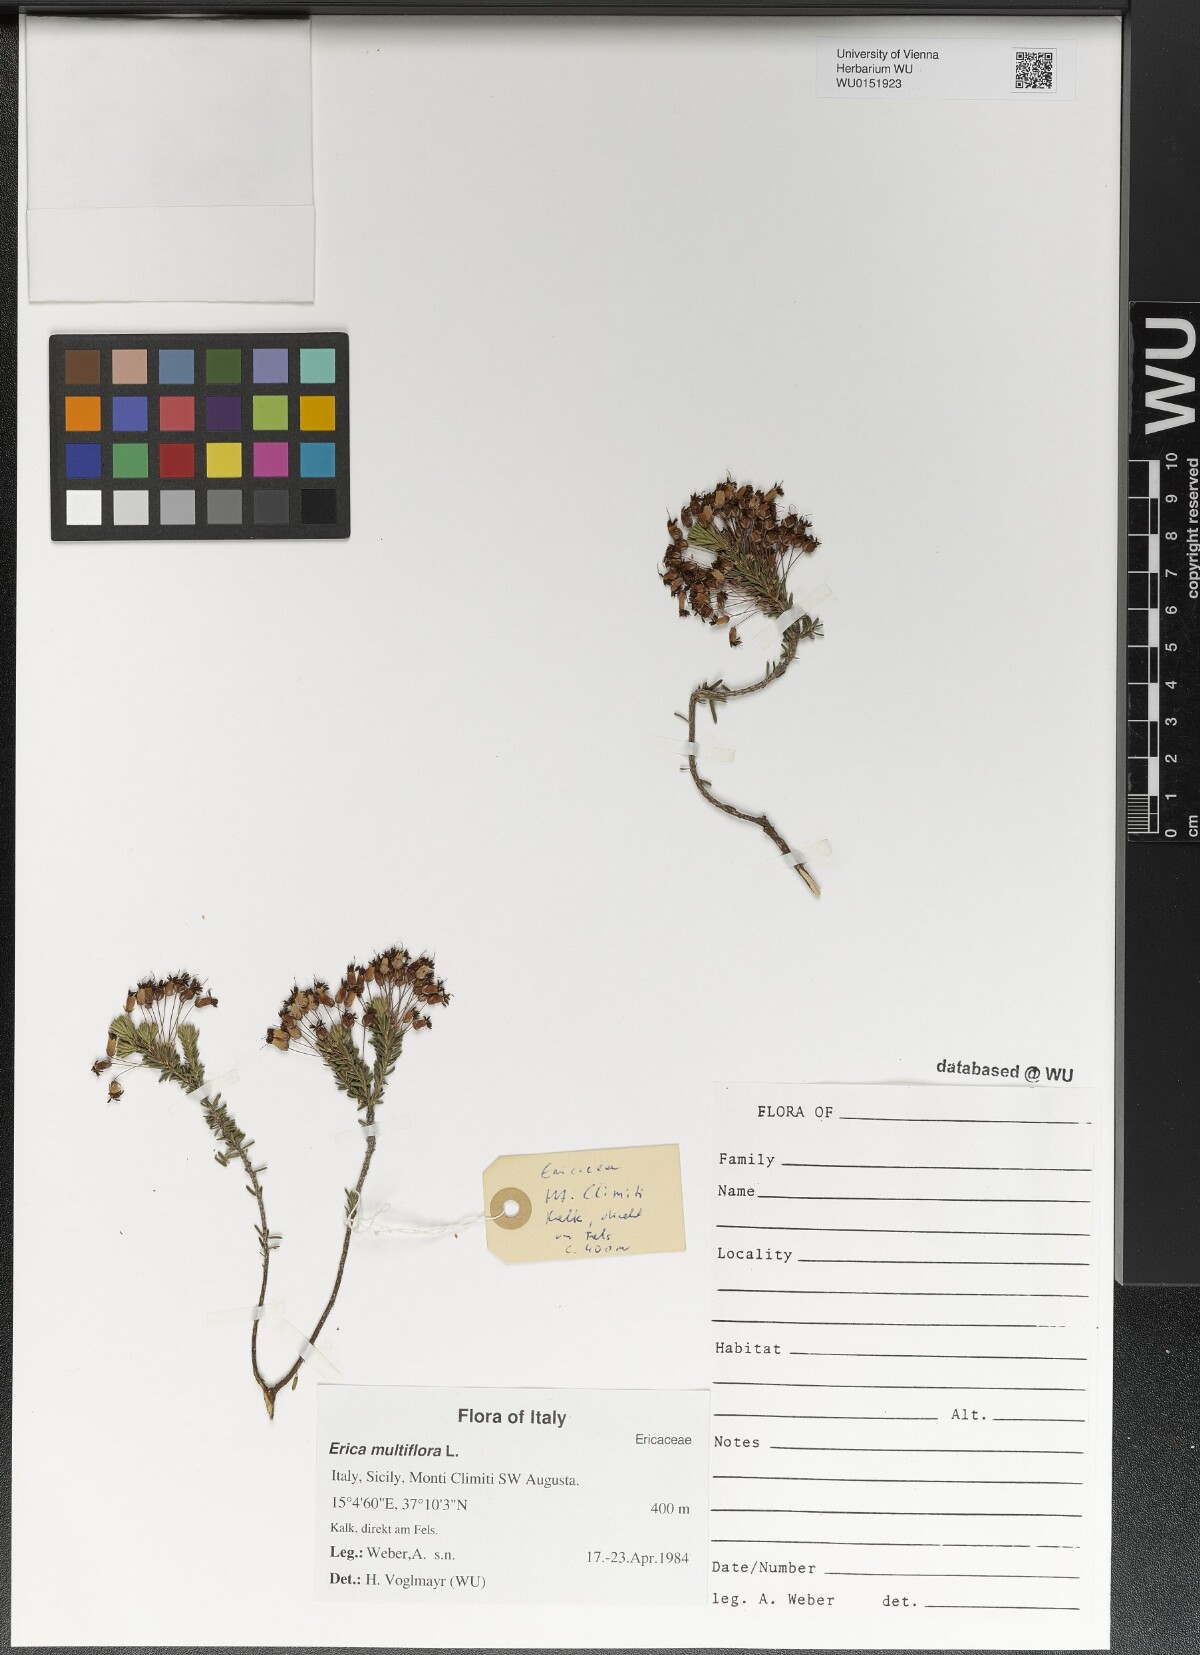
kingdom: Plantae
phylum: Tracheophyta
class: Magnoliopsida
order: Ericales
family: Ericaceae
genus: Erica
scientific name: Erica multiflora
